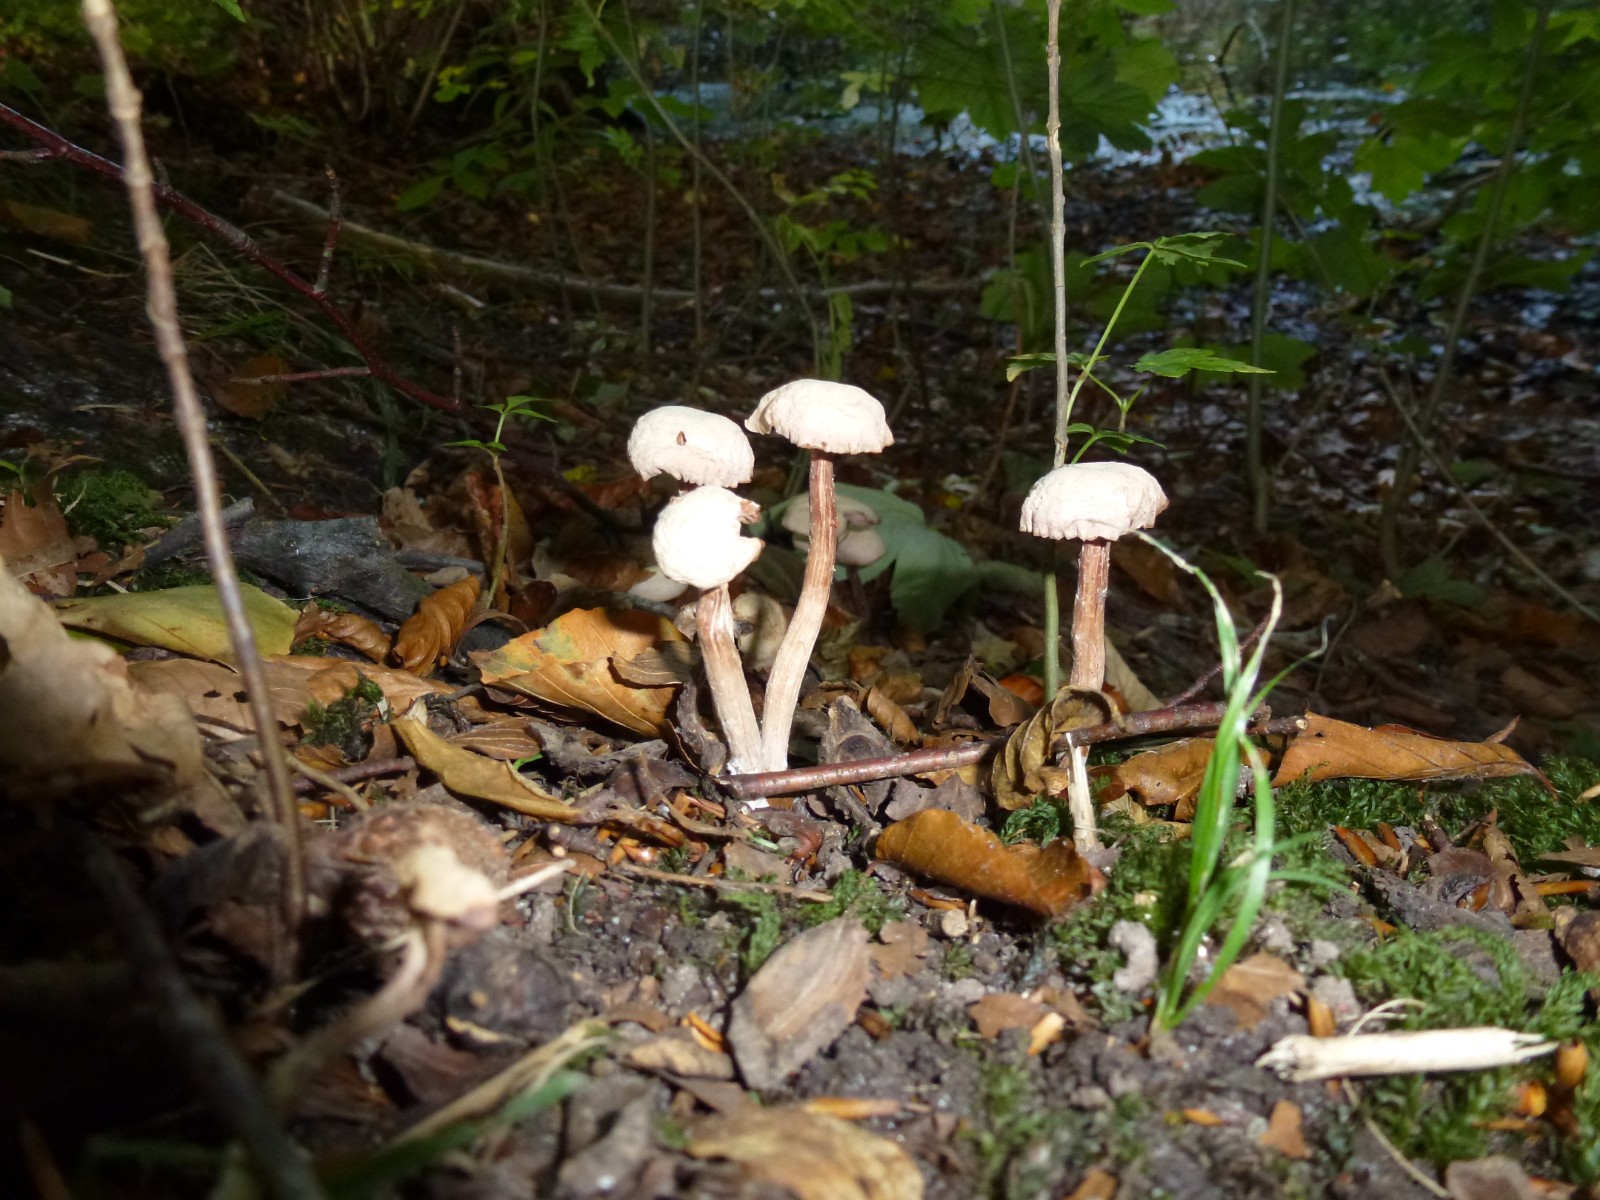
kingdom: Fungi
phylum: Basidiomycota
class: Agaricomycetes
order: Agaricales
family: Hydnangiaceae
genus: Laccaria
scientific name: Laccaria
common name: ametysthat
